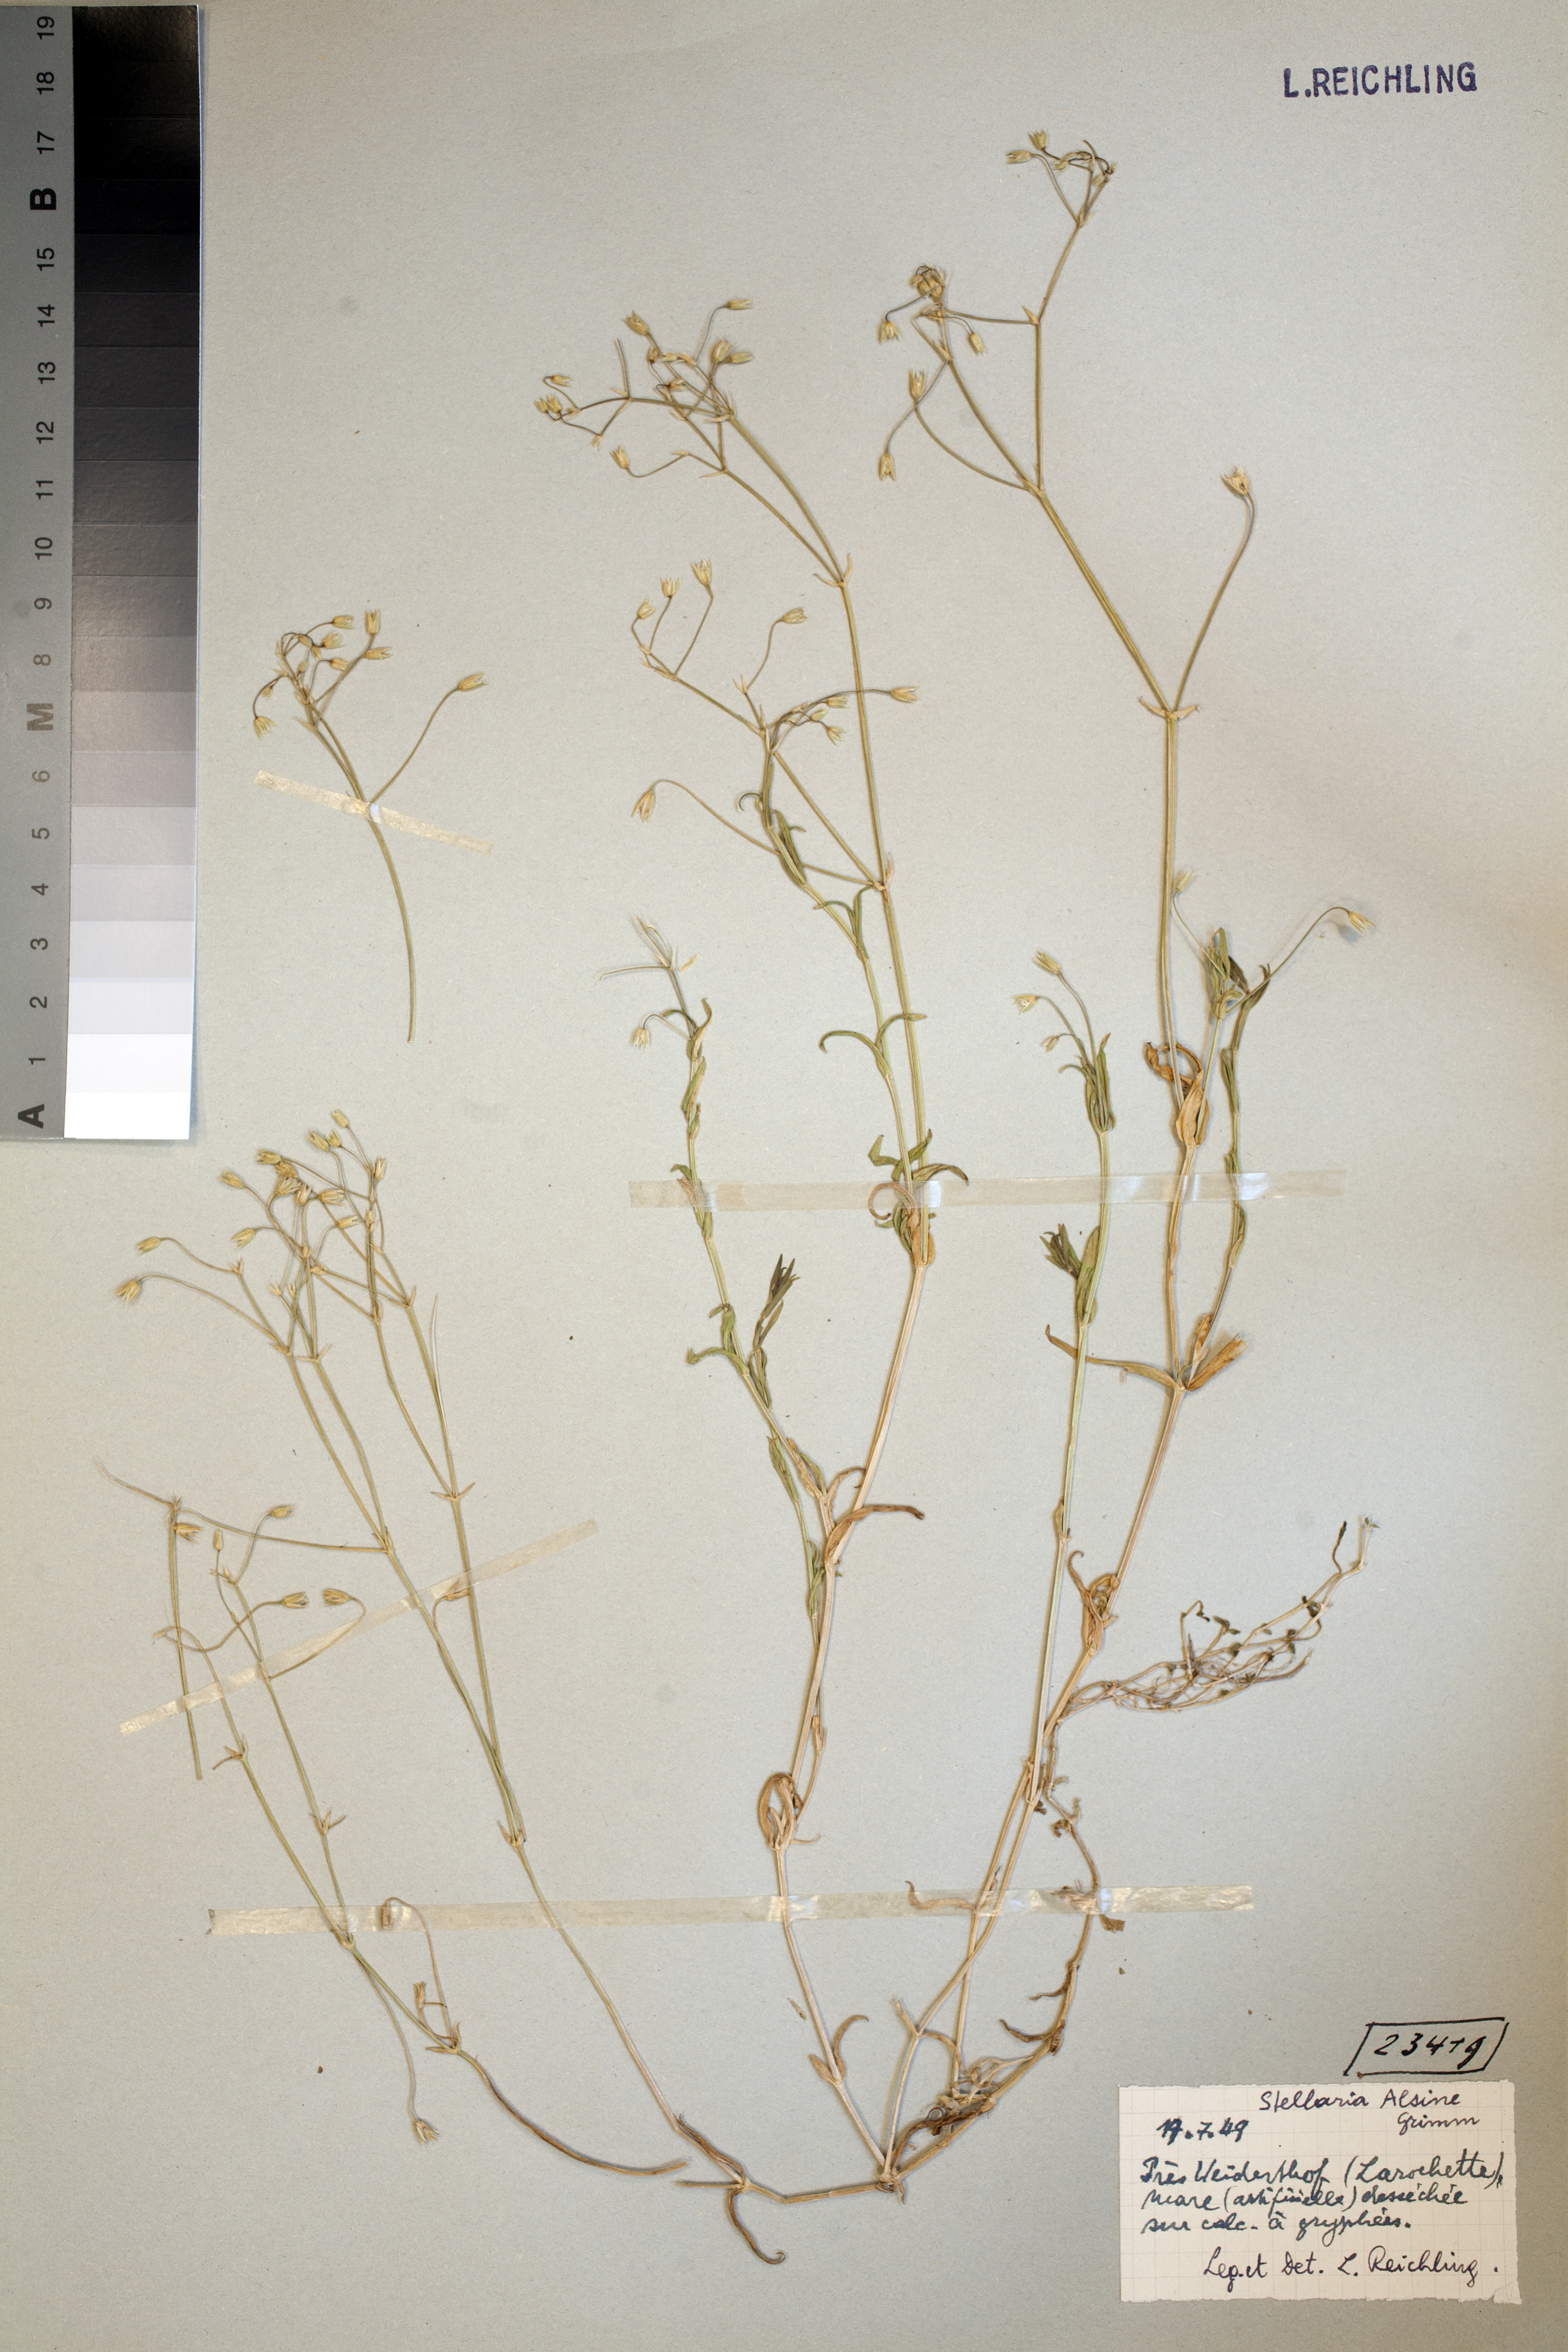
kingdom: Fungi
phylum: Ascomycota
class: Leotiomycetes
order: Helotiales
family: Hyaloscyphaceae
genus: Urceolella
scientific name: Urceolella rufula
